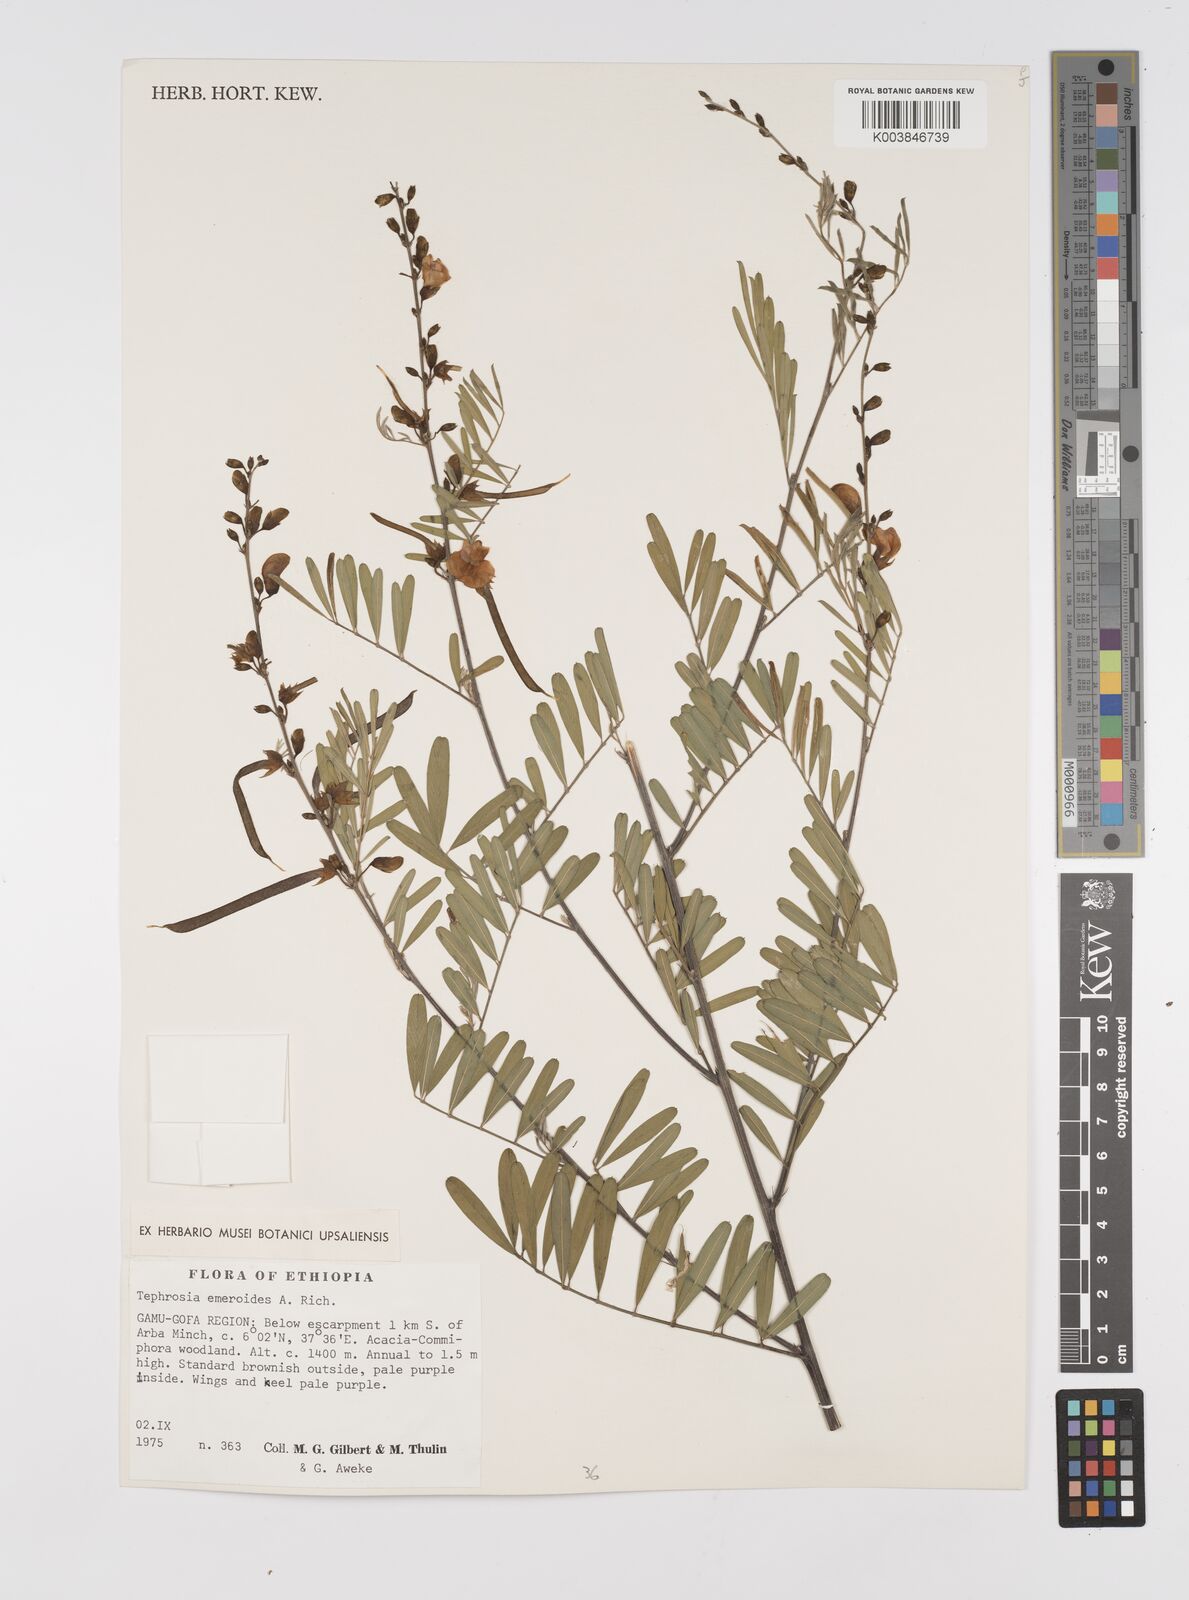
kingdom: Plantae
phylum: Tracheophyta
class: Magnoliopsida
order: Fabales
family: Fabaceae
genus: Tephrosia
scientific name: Tephrosia emeroides
